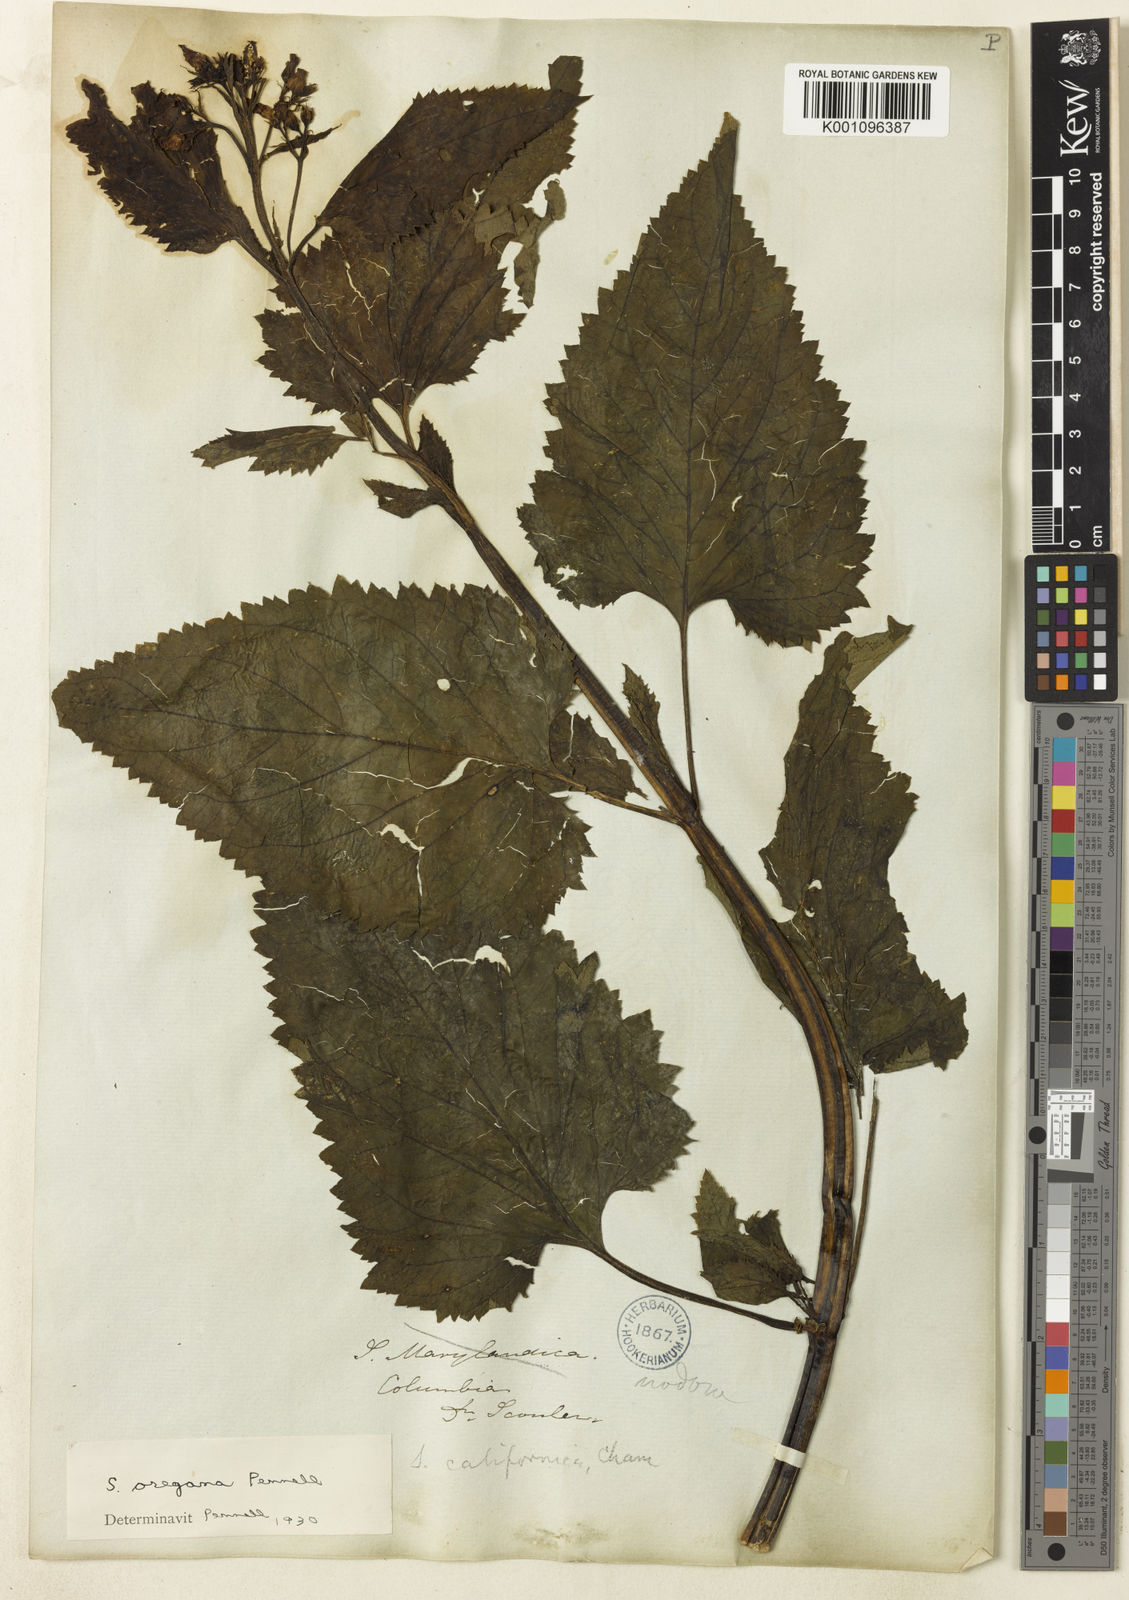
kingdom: Plantae
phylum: Tracheophyta
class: Magnoliopsida
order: Lamiales
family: Scrophulariaceae
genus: Scrophularia
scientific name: Scrophularia californica
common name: California figwort
